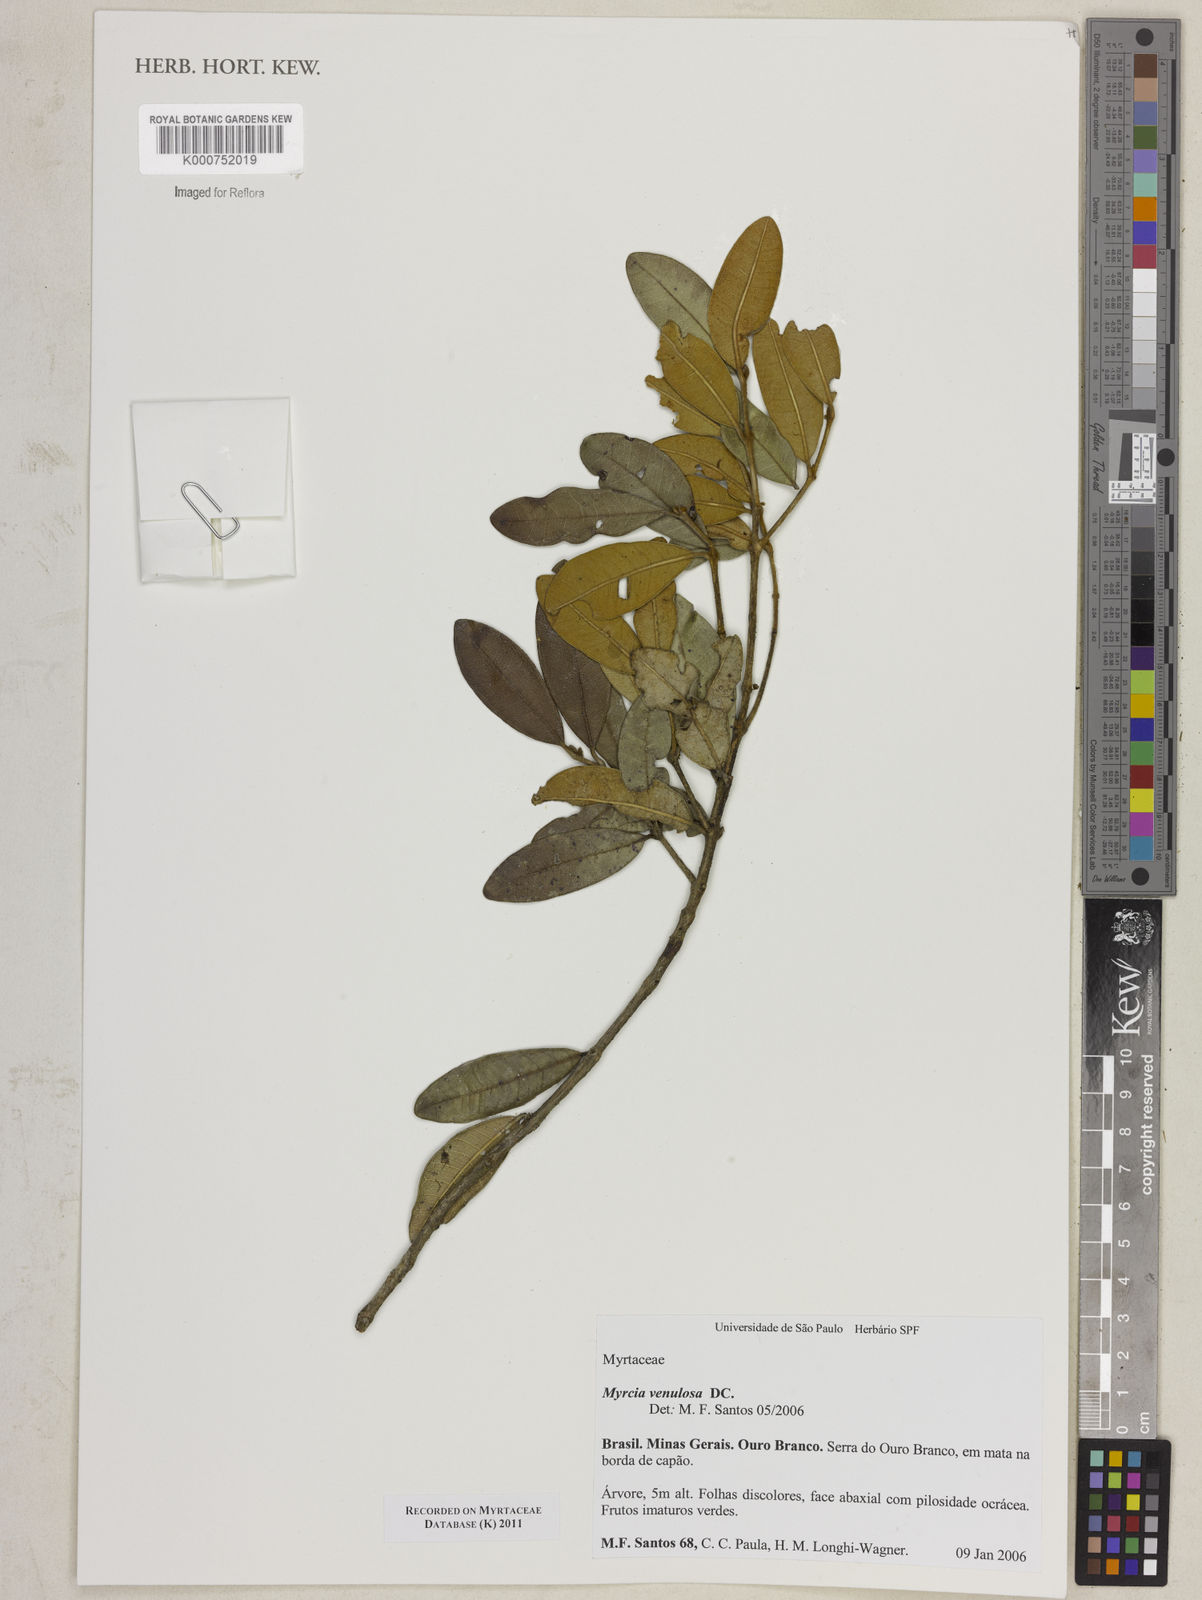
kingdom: Plantae
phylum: Tracheophyta
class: Magnoliopsida
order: Myrtales
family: Myrtaceae
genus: Myrcia
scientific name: Myrcia venulosa
